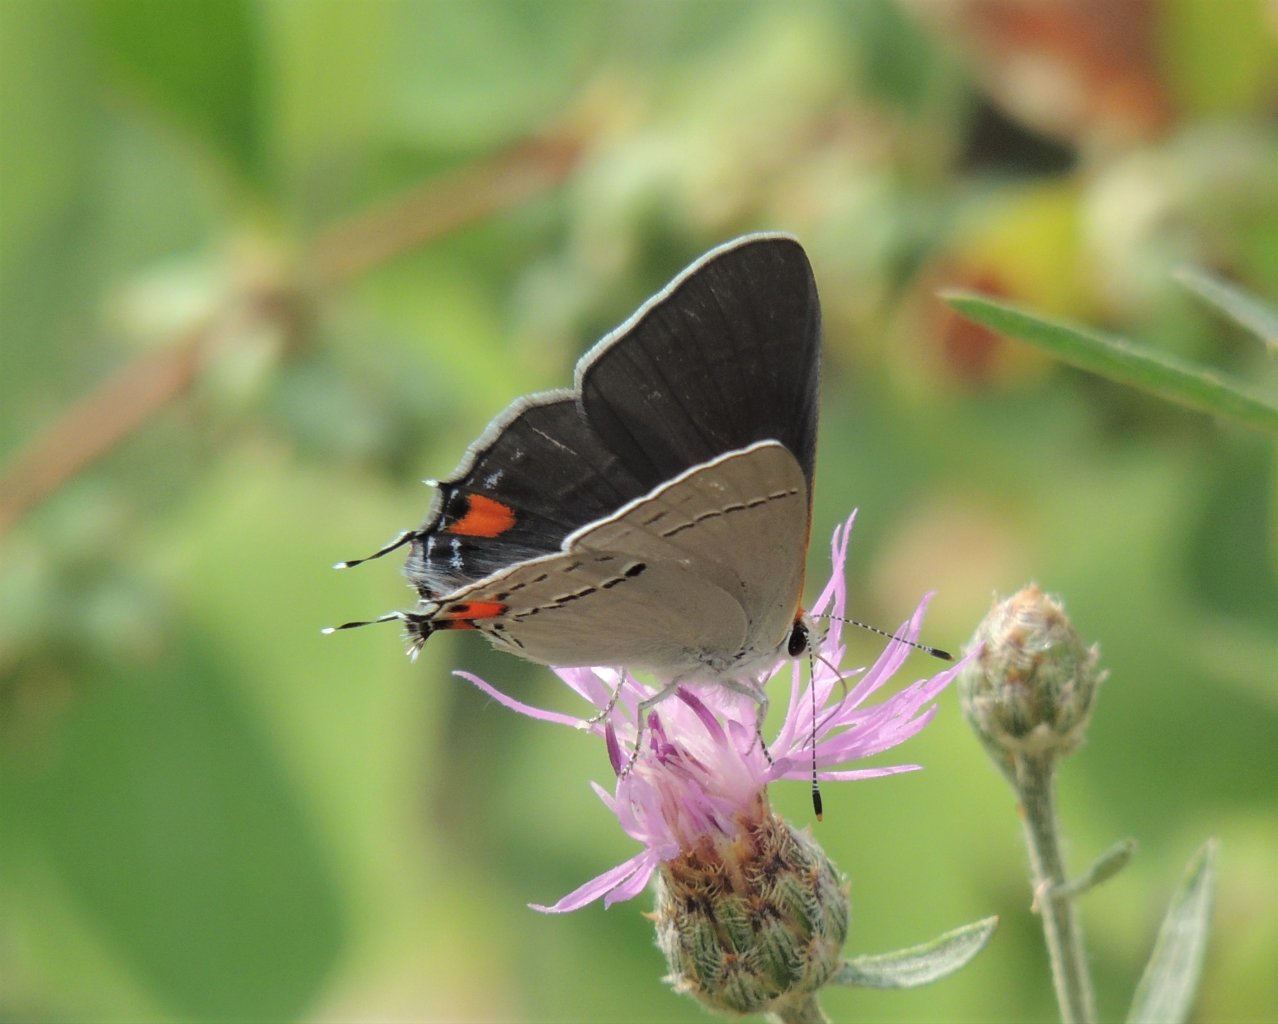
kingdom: Animalia
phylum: Arthropoda
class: Insecta
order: Lepidoptera
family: Lycaenidae
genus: Strymon
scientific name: Strymon melinus
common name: Gray Hairstreak
